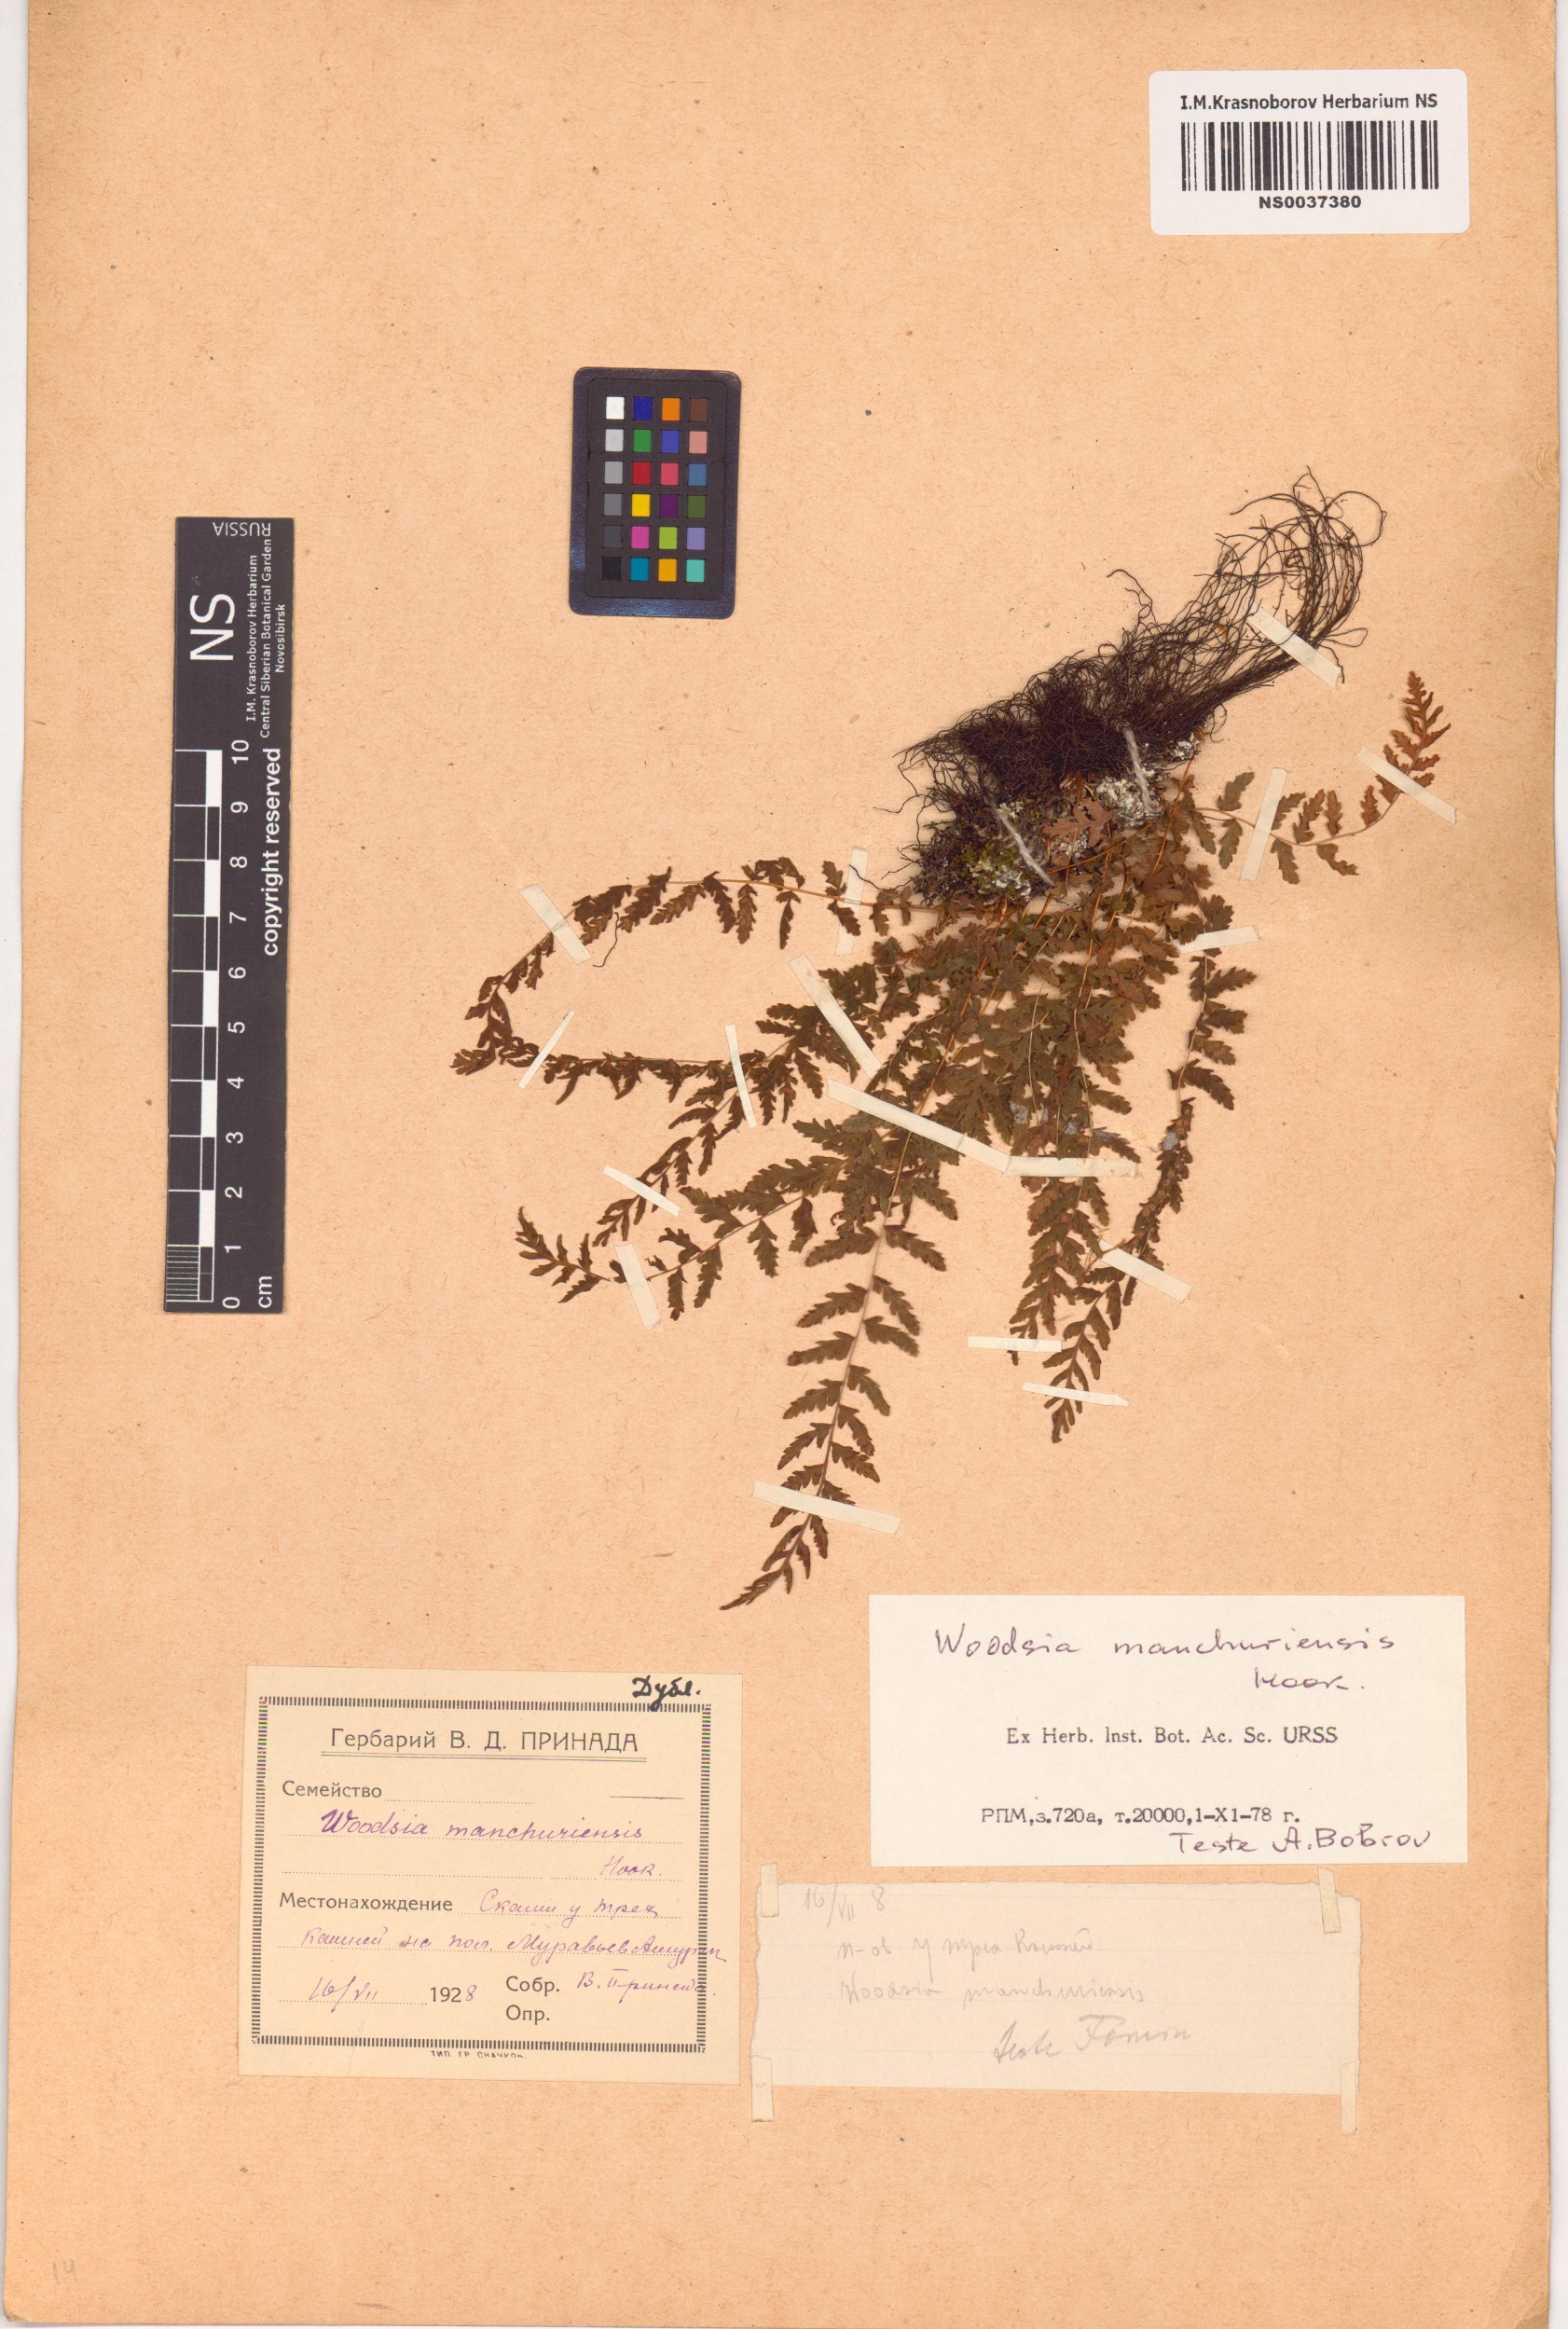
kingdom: Plantae
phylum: Tracheophyta
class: Polypodiopsida
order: Polypodiales
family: Woodsiaceae
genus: Physematium
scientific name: Physematium manchuriense
